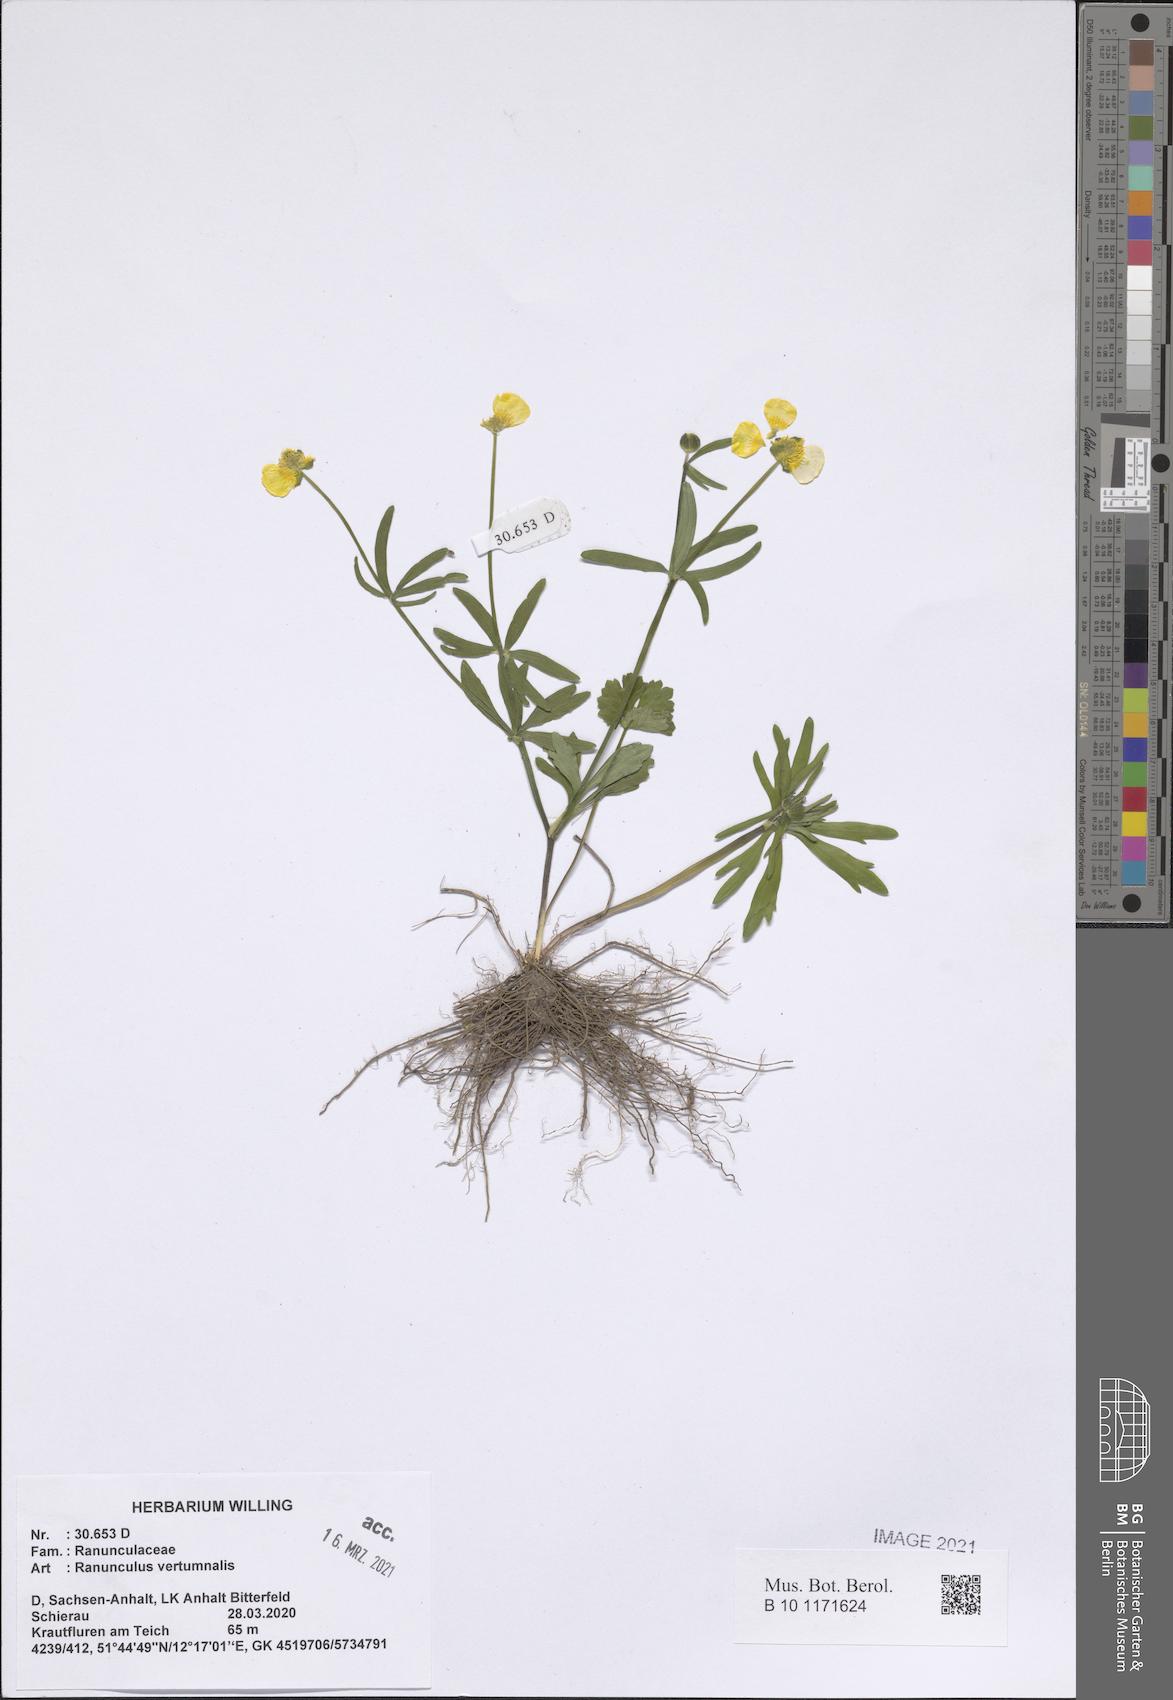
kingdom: Plantae
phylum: Tracheophyta
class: Magnoliopsida
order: Ranunculales
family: Ranunculaceae
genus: Ranunculus
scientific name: Ranunculus vertumnalis
